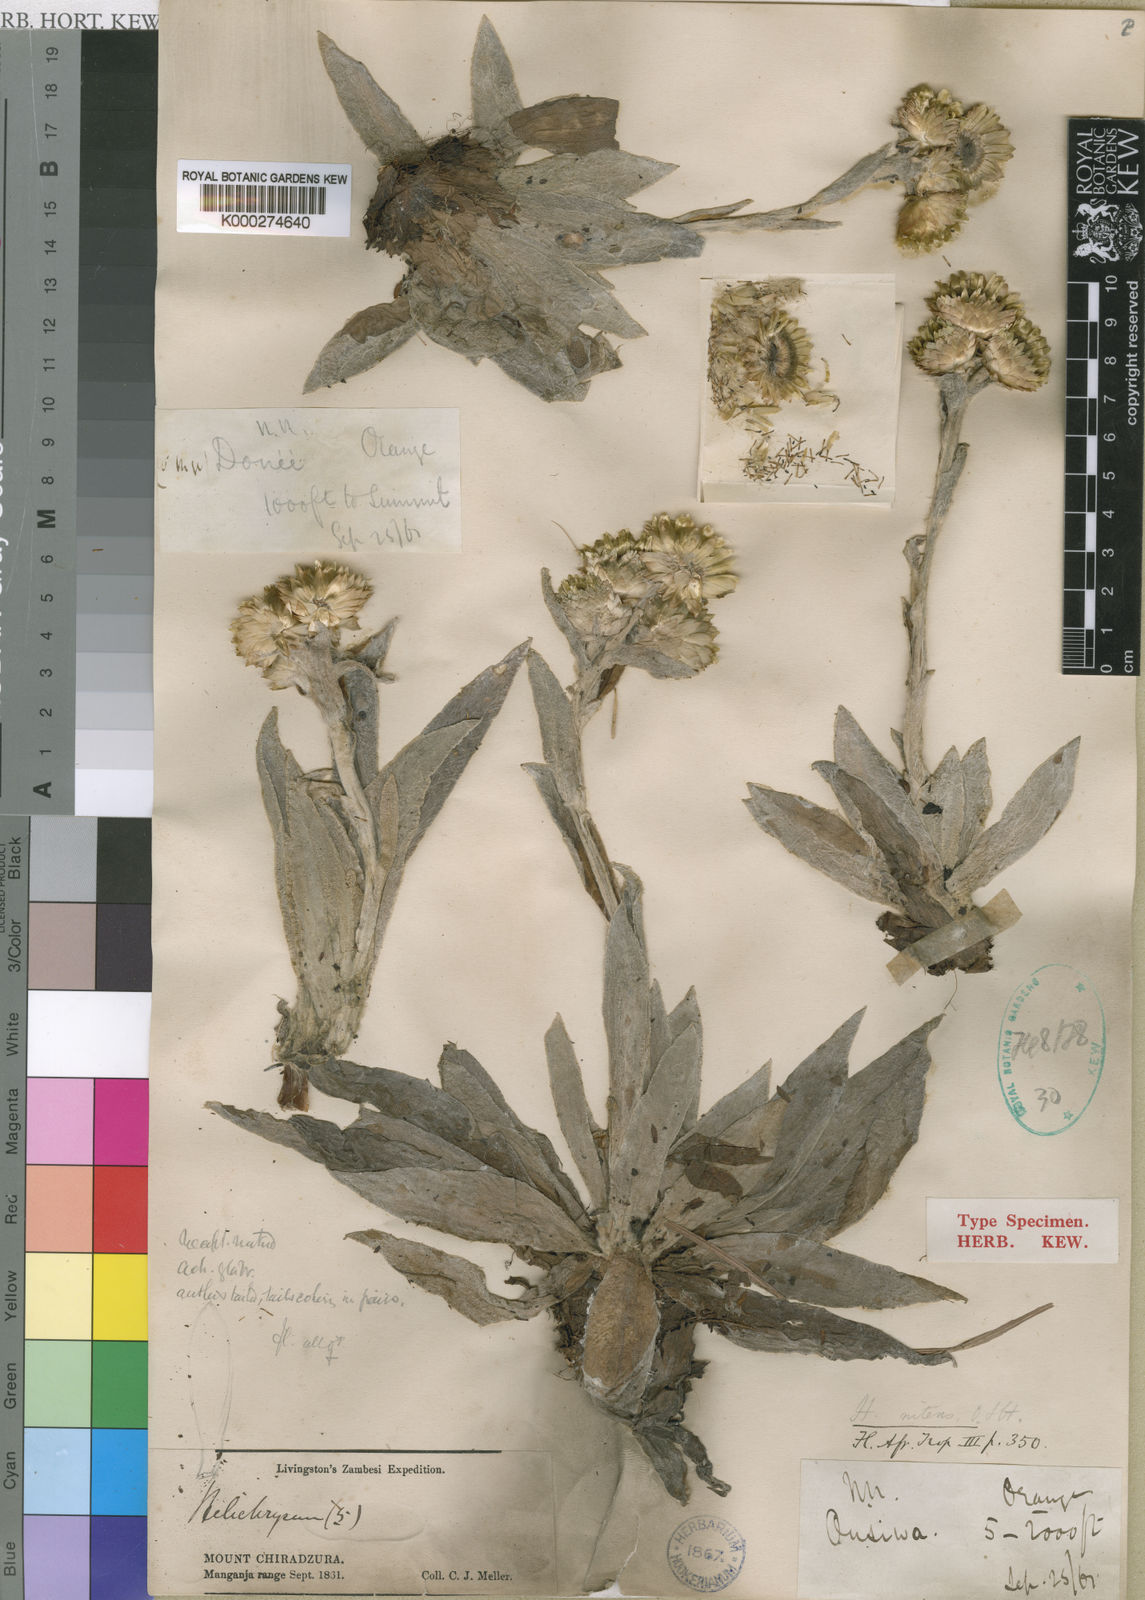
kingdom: Plantae
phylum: Tracheophyta
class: Magnoliopsida
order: Asterales
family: Asteraceae
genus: Helichrysum
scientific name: Helichrysum nitens
